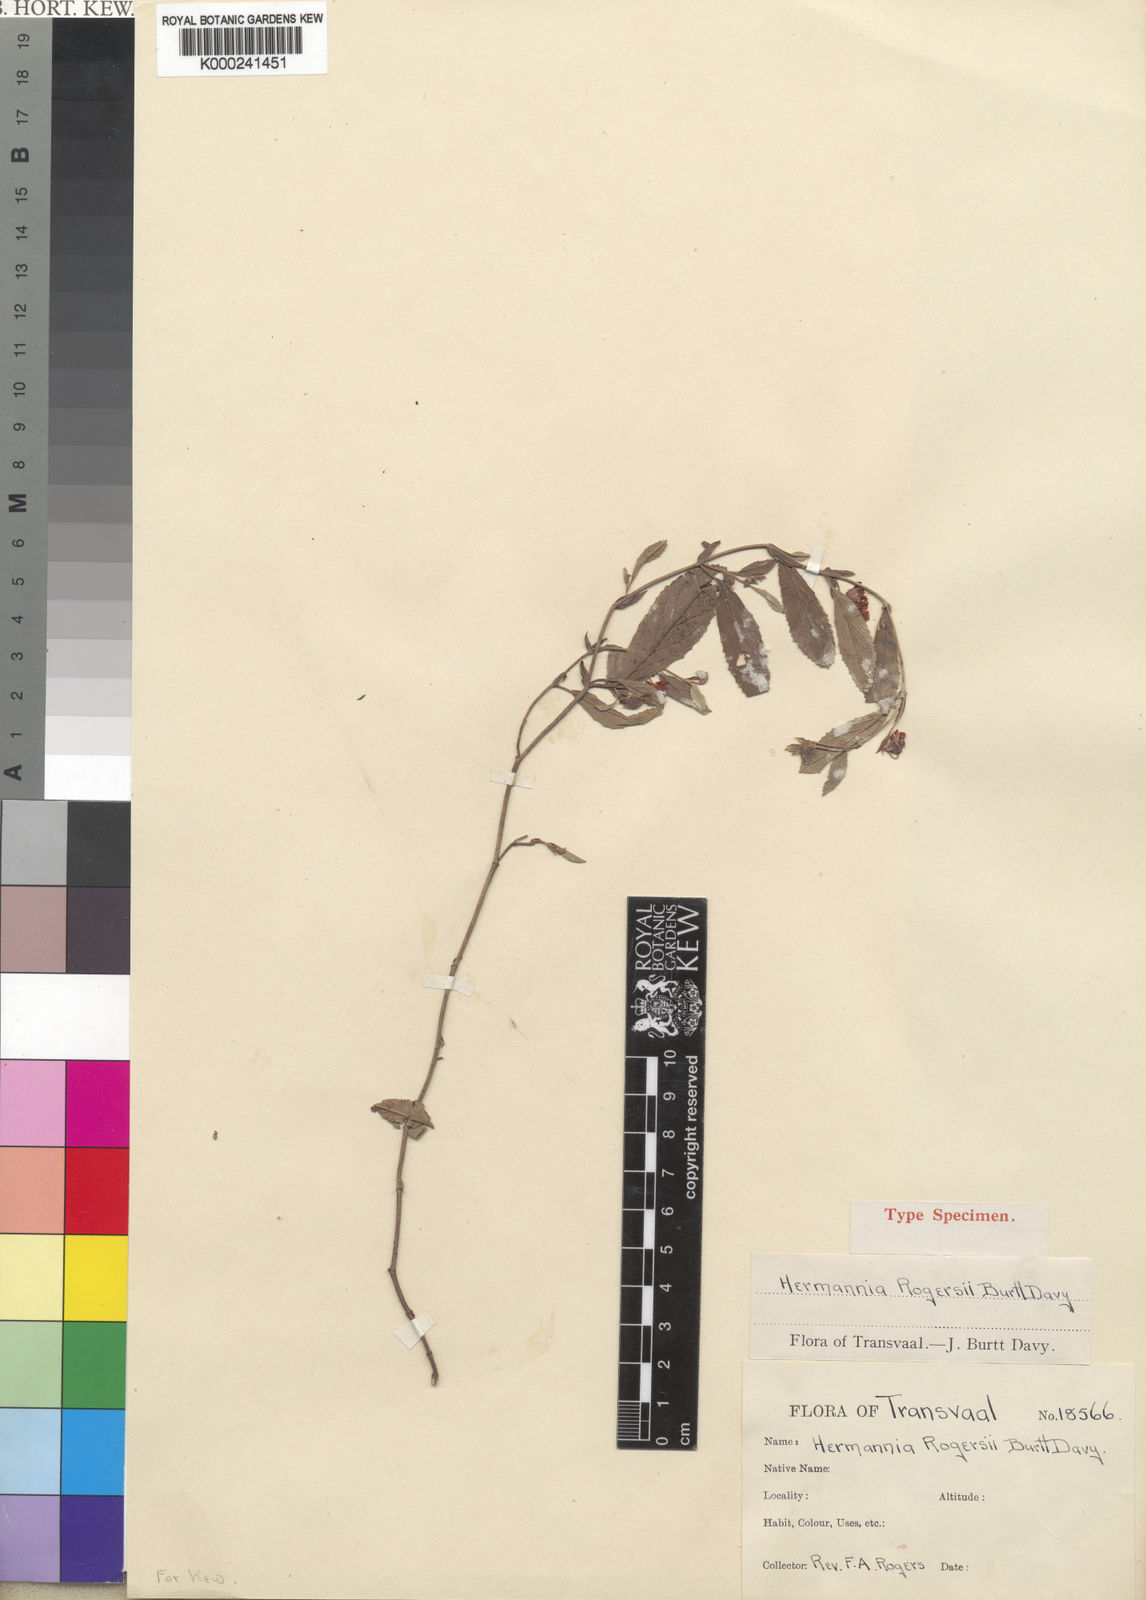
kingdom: Plantae
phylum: Tracheophyta
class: Magnoliopsida
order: Malvales
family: Malvaceae
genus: Hermannia
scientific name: Hermannia montana
